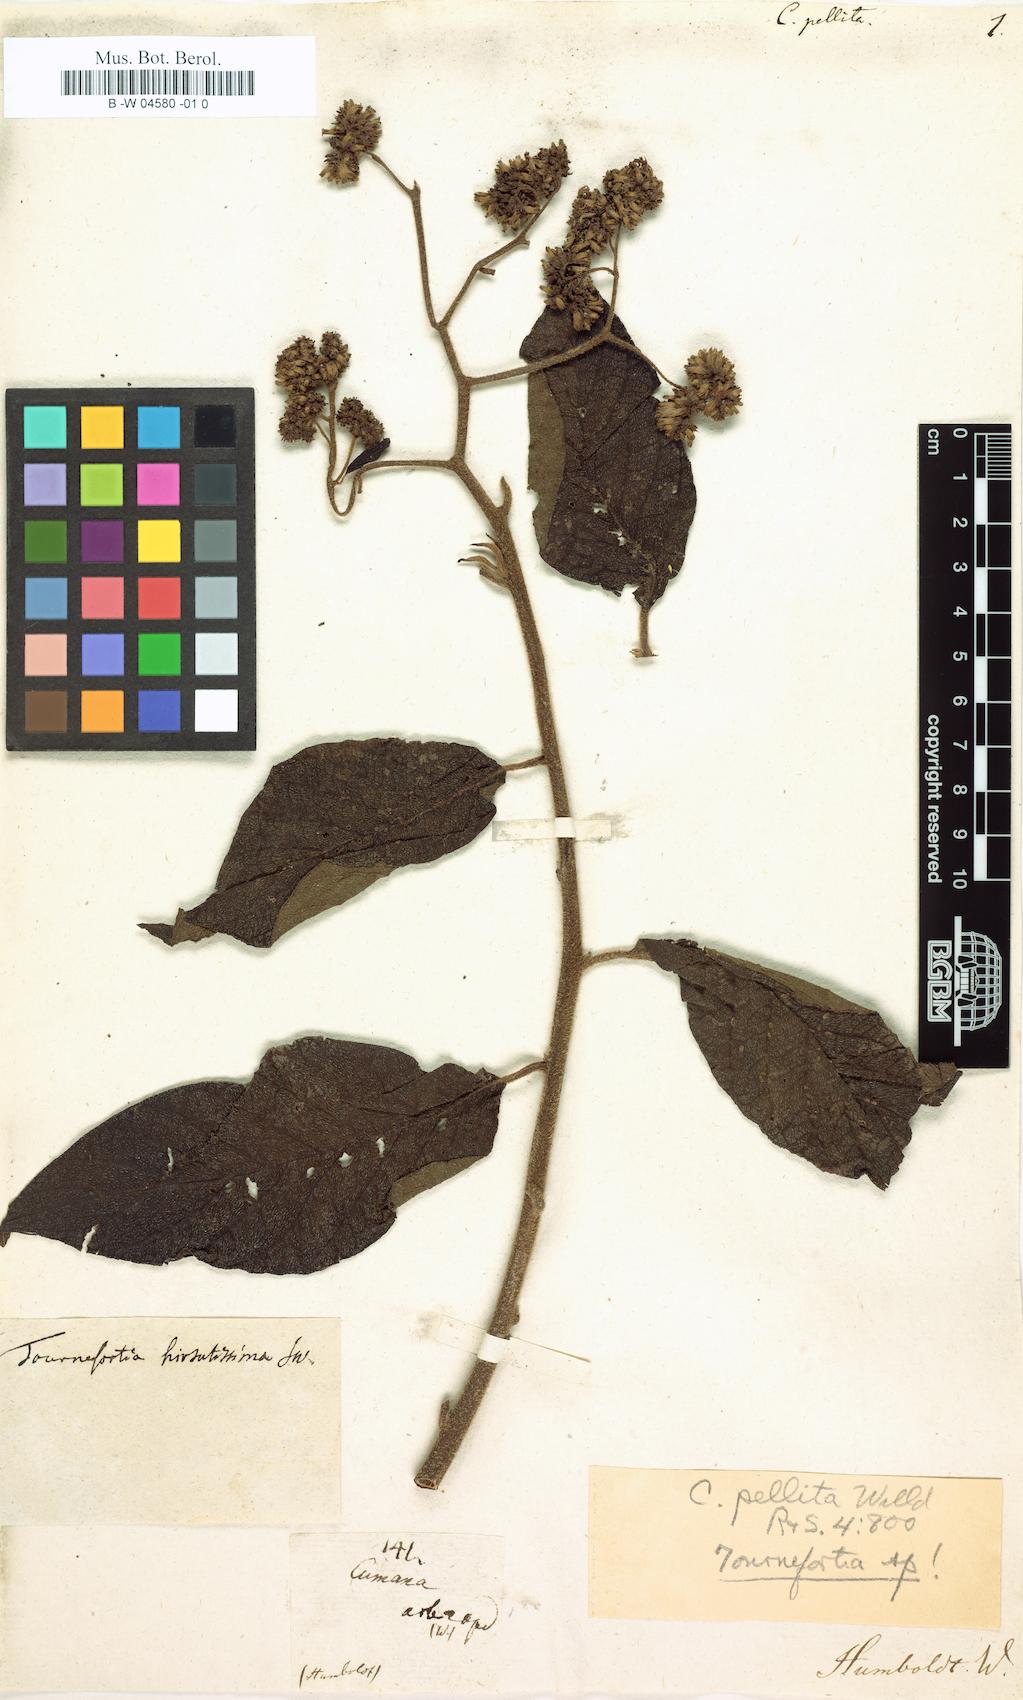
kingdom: Plantae
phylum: Tracheophyta
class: Magnoliopsida
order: Boraginales
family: Heliotropiaceae
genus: Heliotropium
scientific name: Heliotropium verdcourtii
